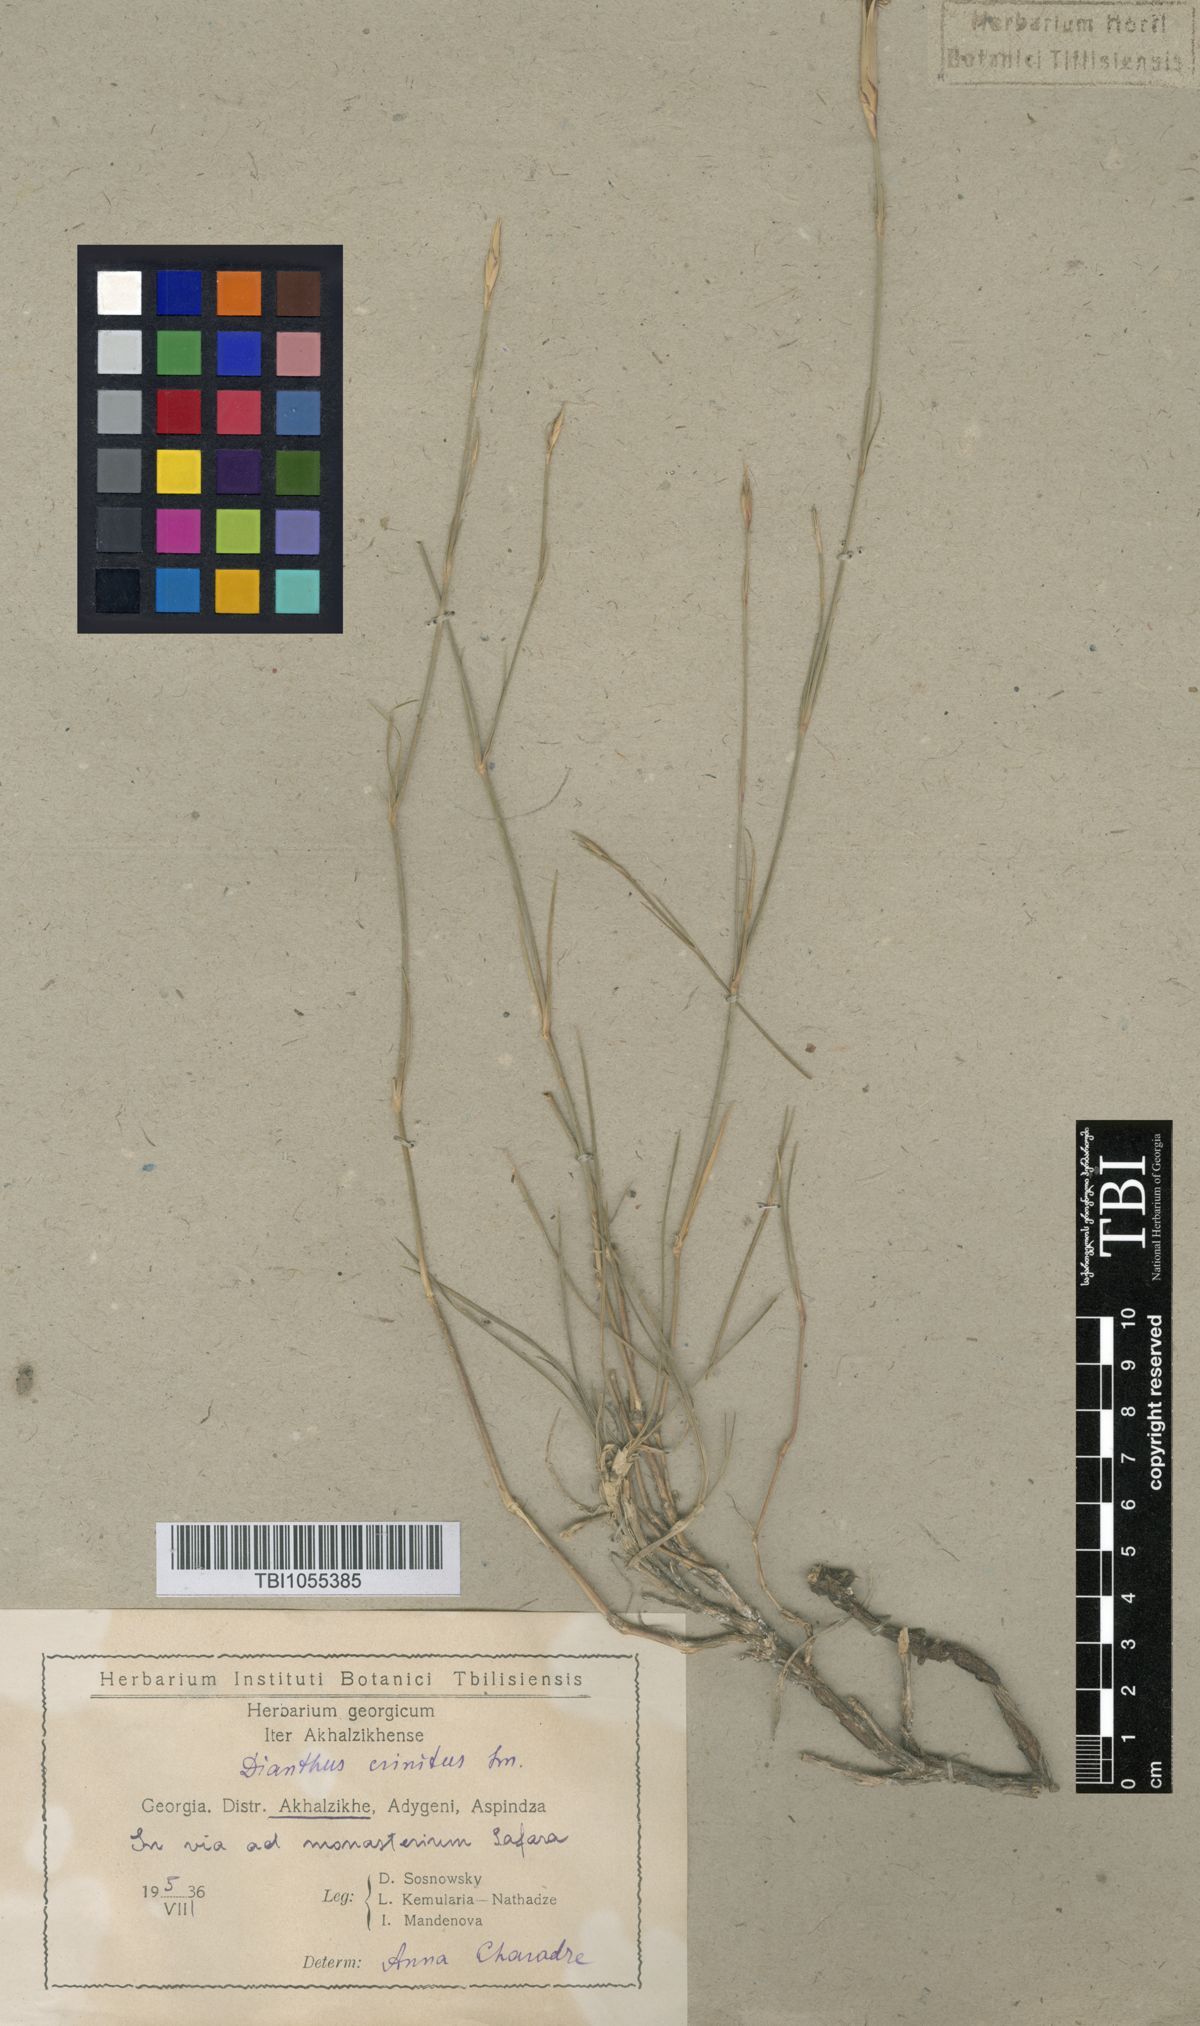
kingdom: Plantae
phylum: Tracheophyta
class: Magnoliopsida
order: Caryophyllales
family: Caryophyllaceae
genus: Dianthus
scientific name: Dianthus crinitus
